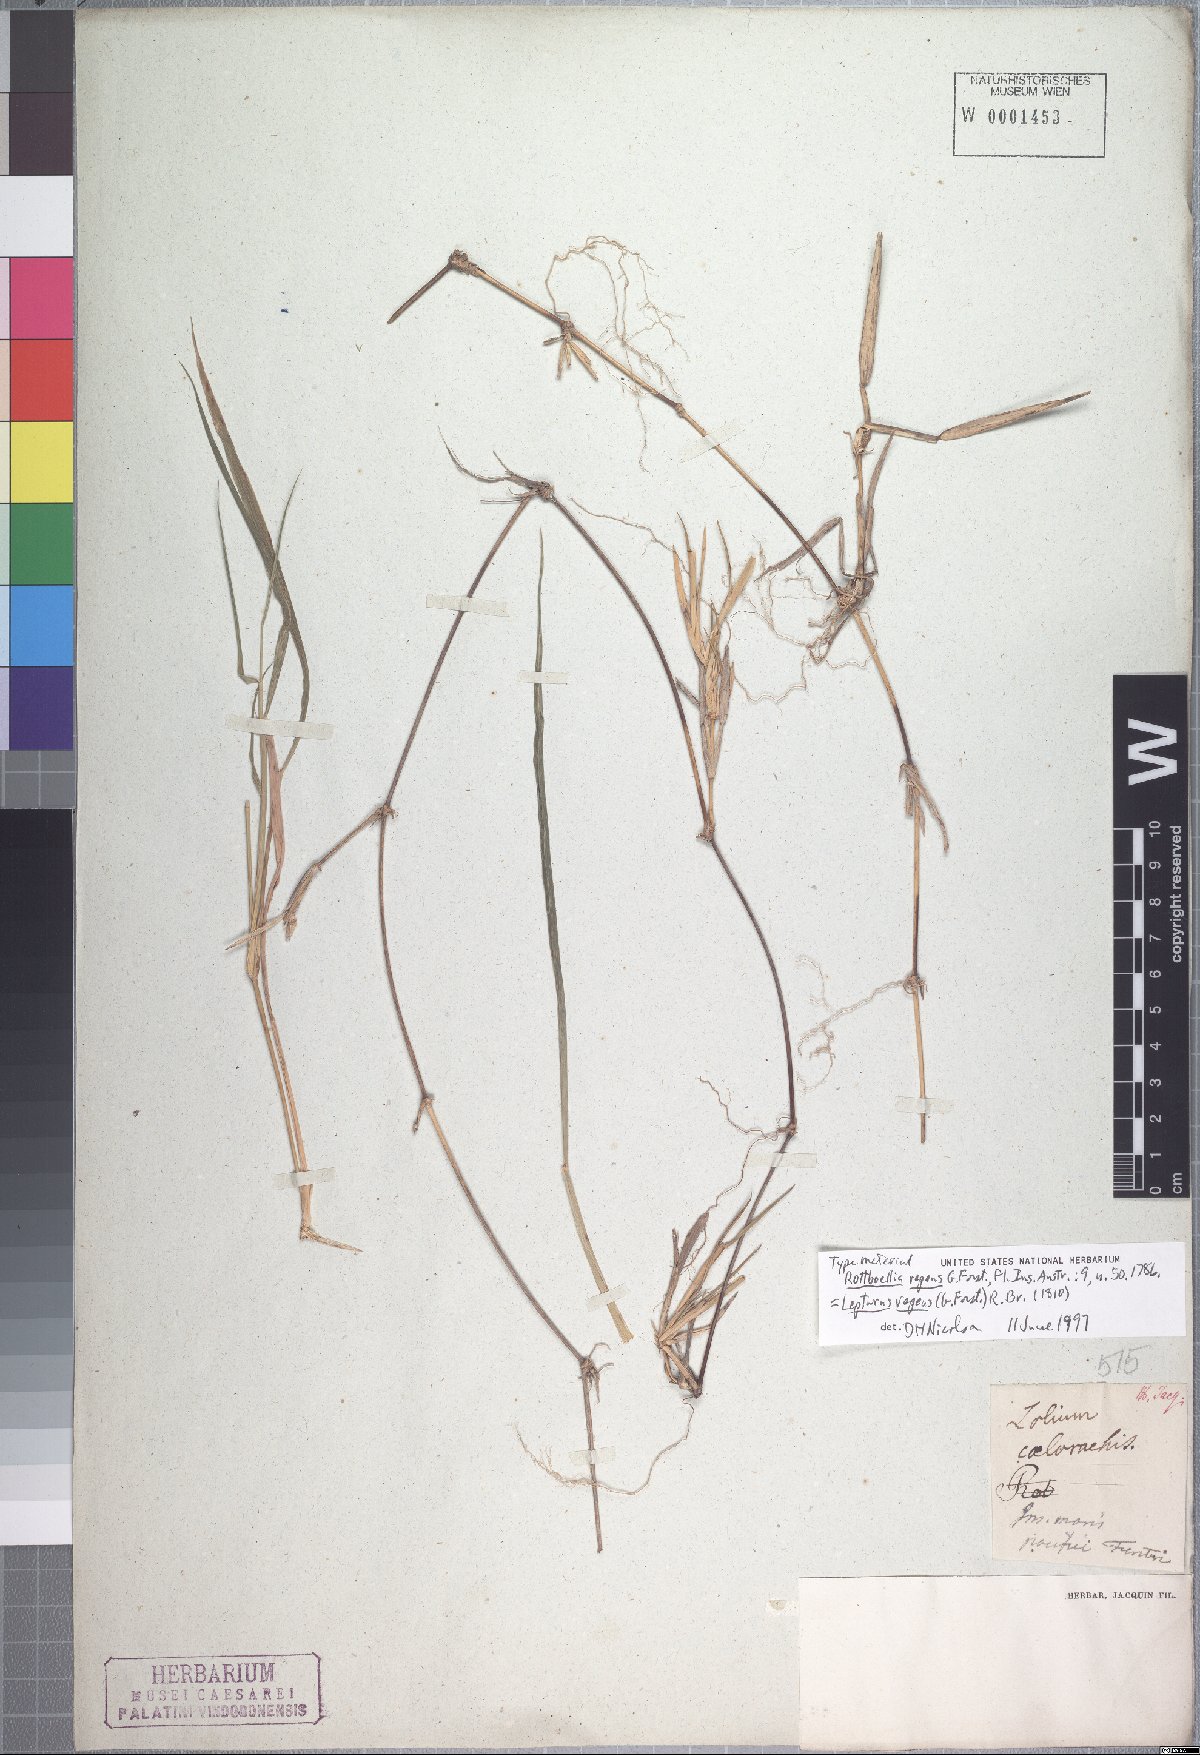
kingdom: Plantae
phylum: Tracheophyta
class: Liliopsida
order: Poales
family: Poaceae
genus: Lepturus
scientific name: Lepturus repens
